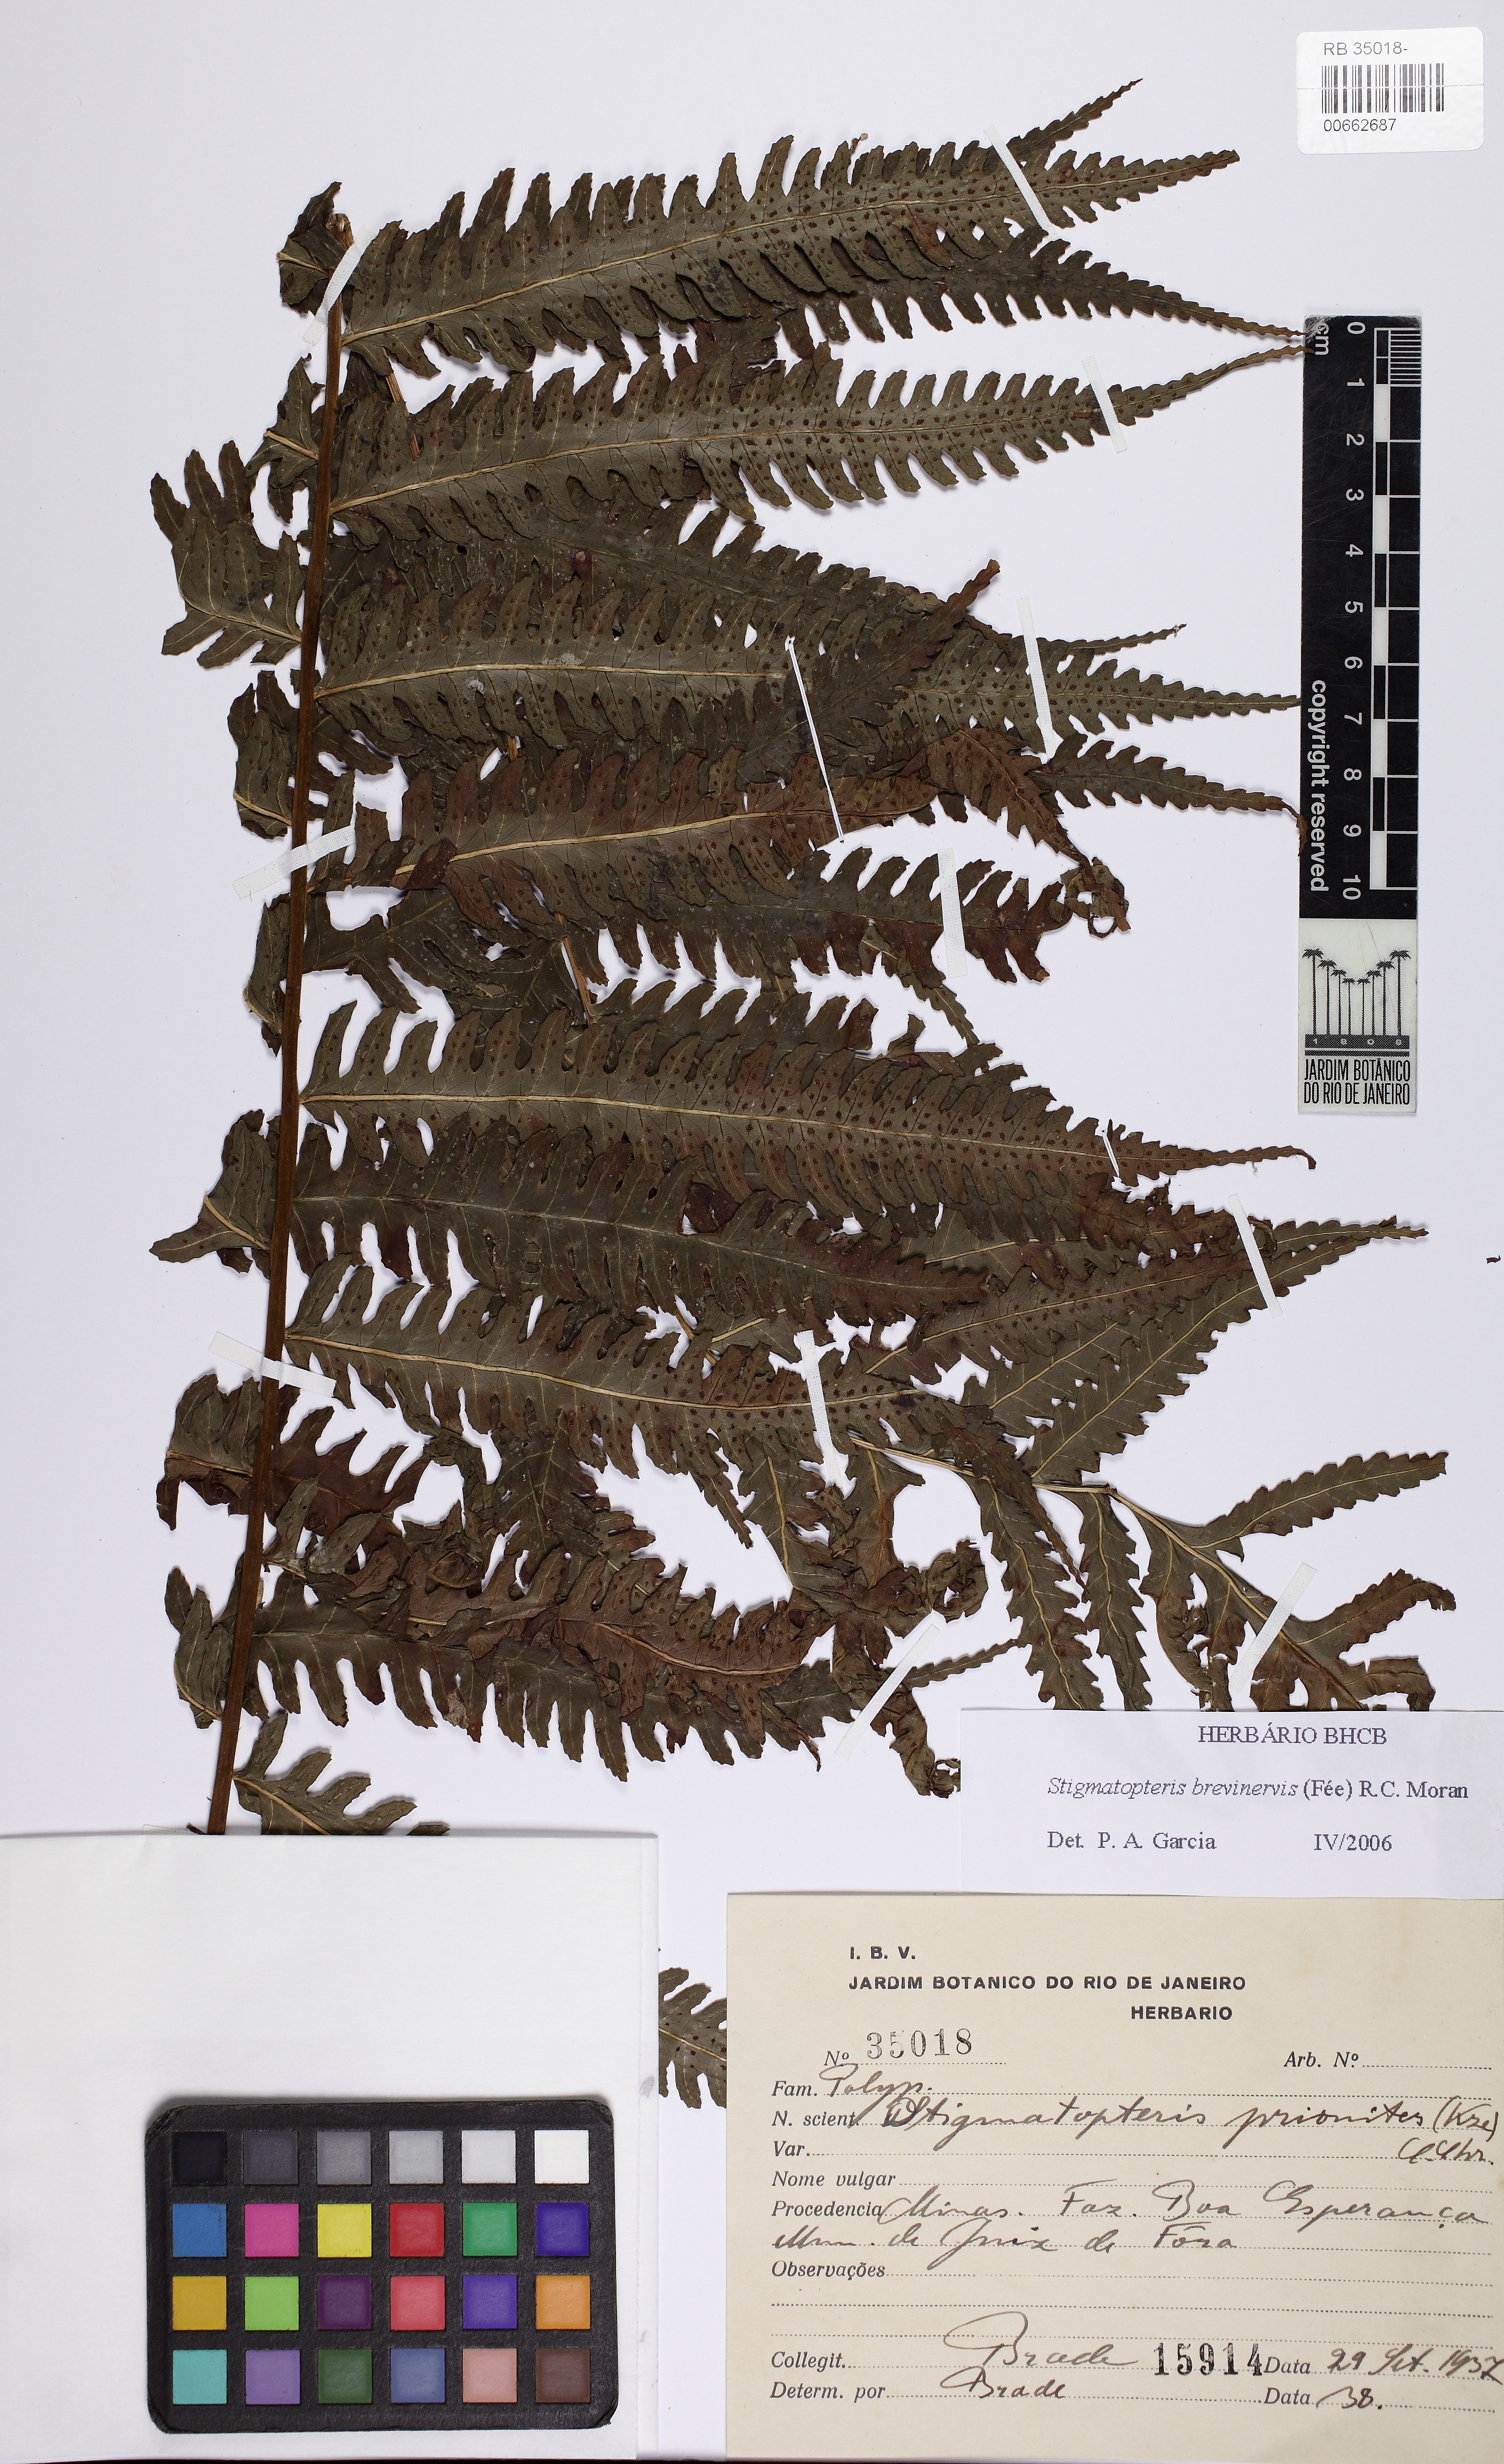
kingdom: Plantae
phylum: Tracheophyta
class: Polypodiopsida
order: Polypodiales
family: Dryopteridaceae
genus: Stigmatopteris
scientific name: Stigmatopteris brevinervis
